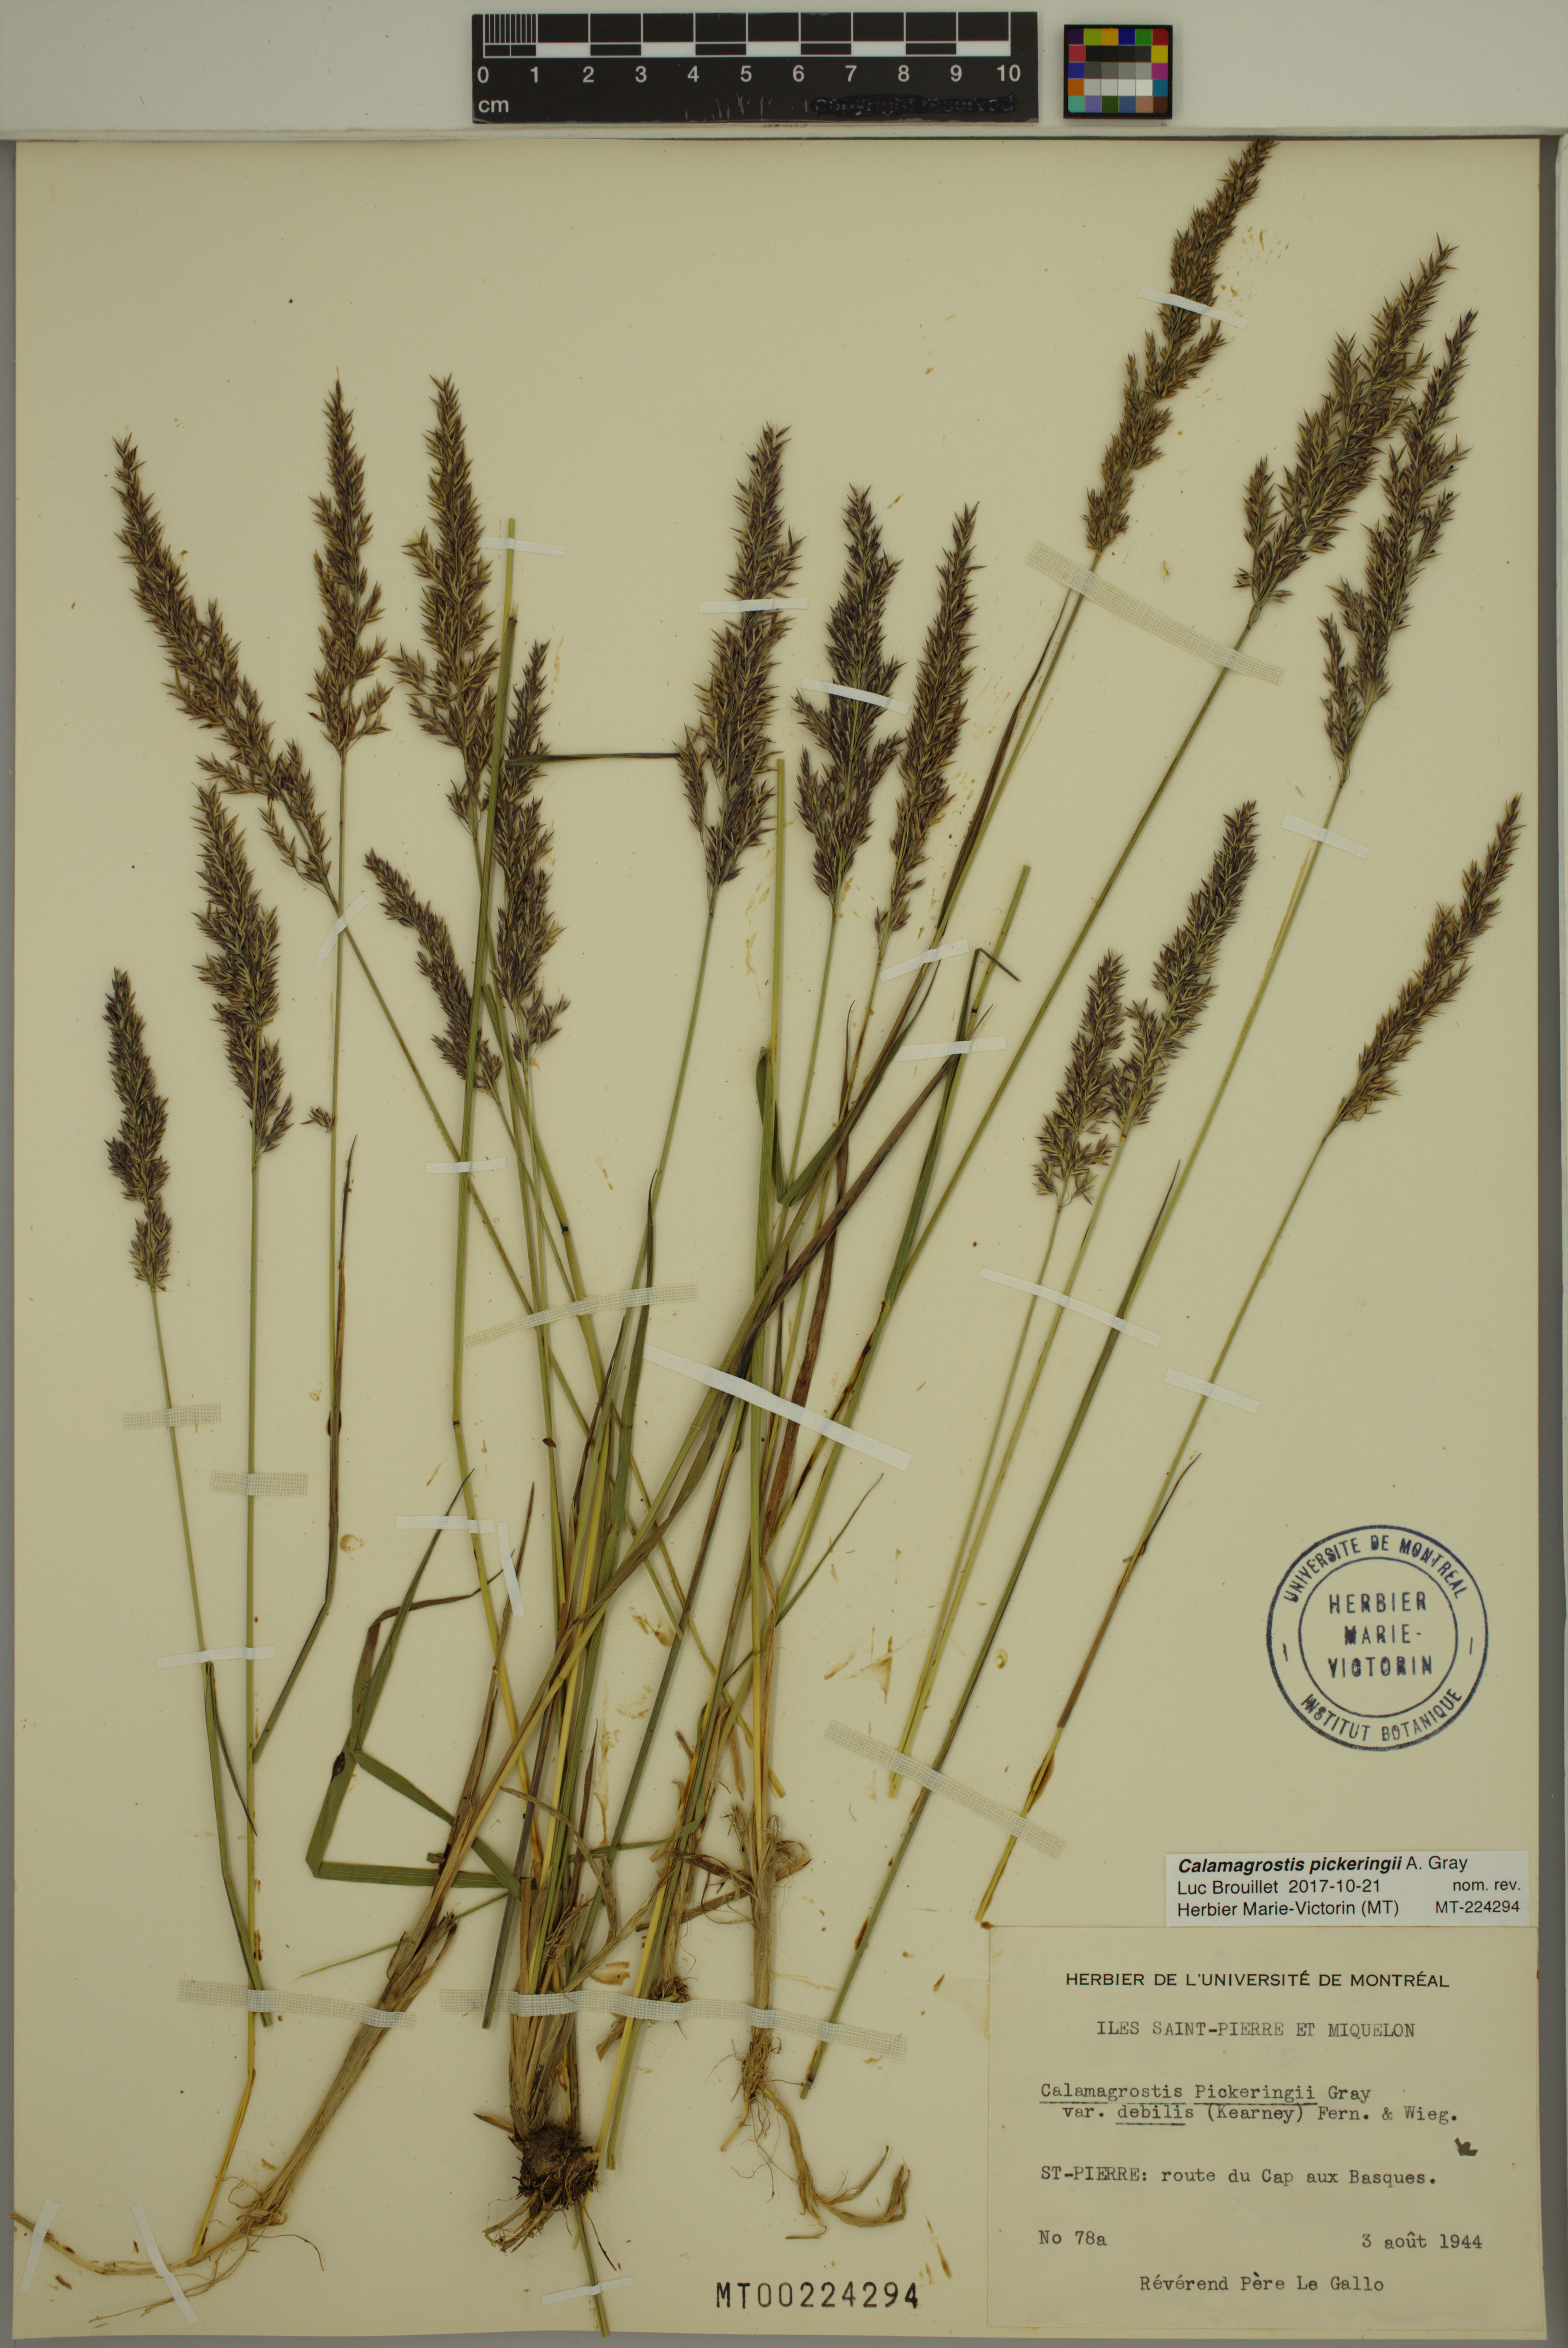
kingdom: Plantae
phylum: Tracheophyta
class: Liliopsida
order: Poales
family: Poaceae
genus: Calamagrostis
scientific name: Calamagrostis pickeringii
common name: Pickering's reed bentgrass
